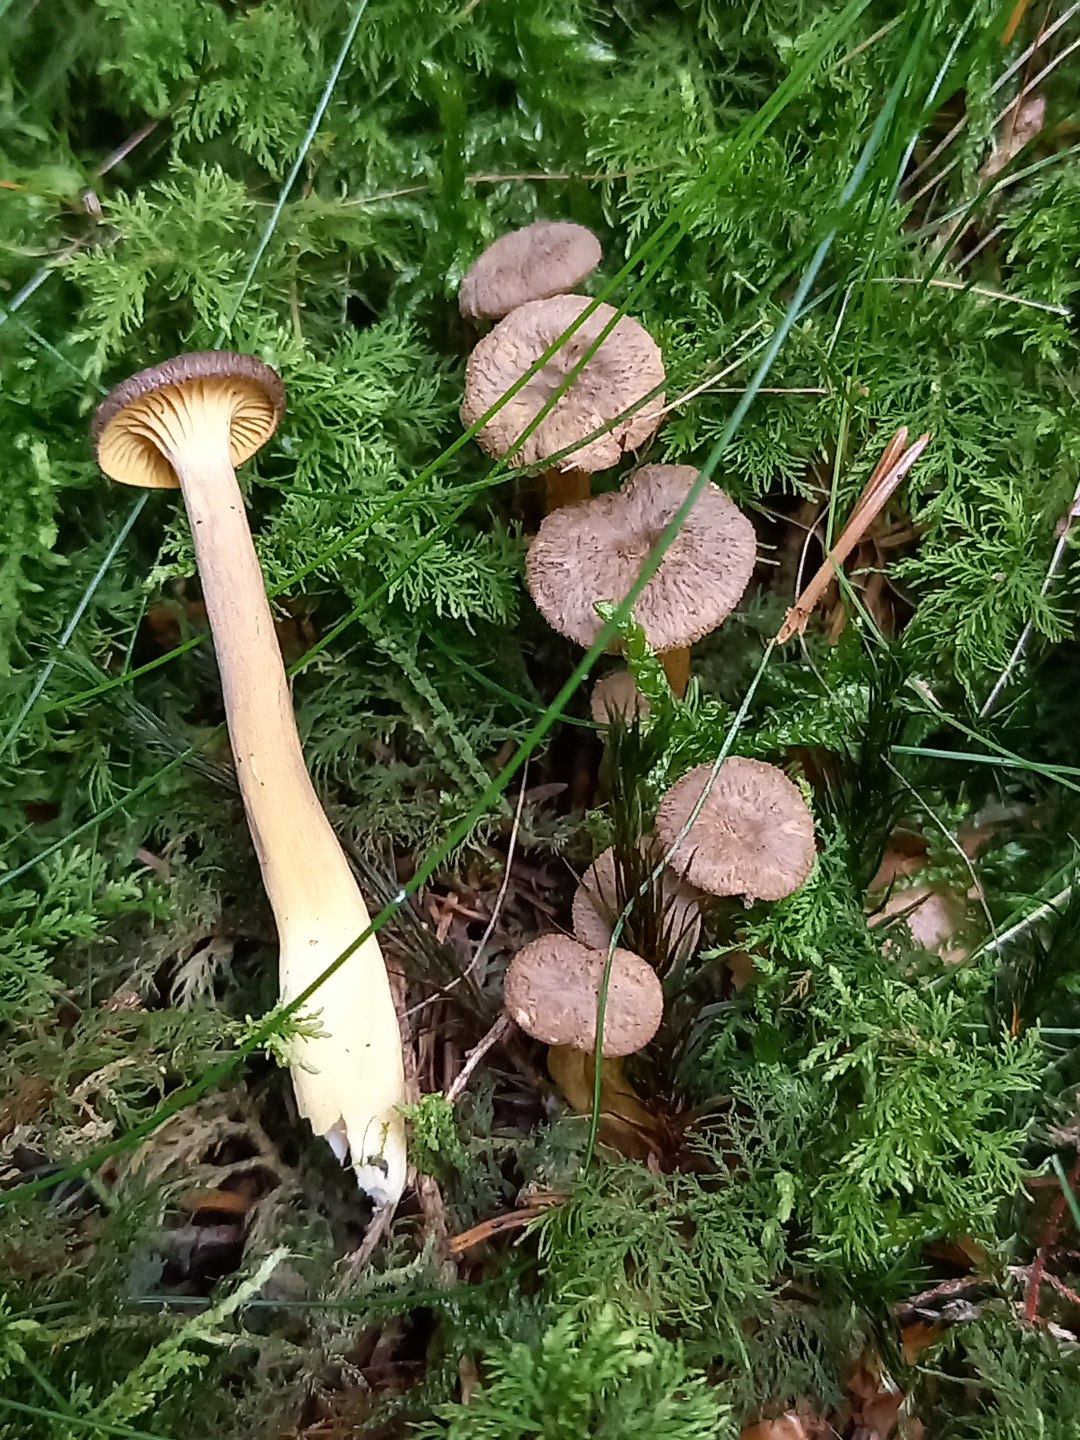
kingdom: Fungi
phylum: Basidiomycota
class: Agaricomycetes
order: Cantharellales
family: Hydnaceae
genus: Craterellus
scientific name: Craterellus tubaeformis
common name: tragt-kantarel
